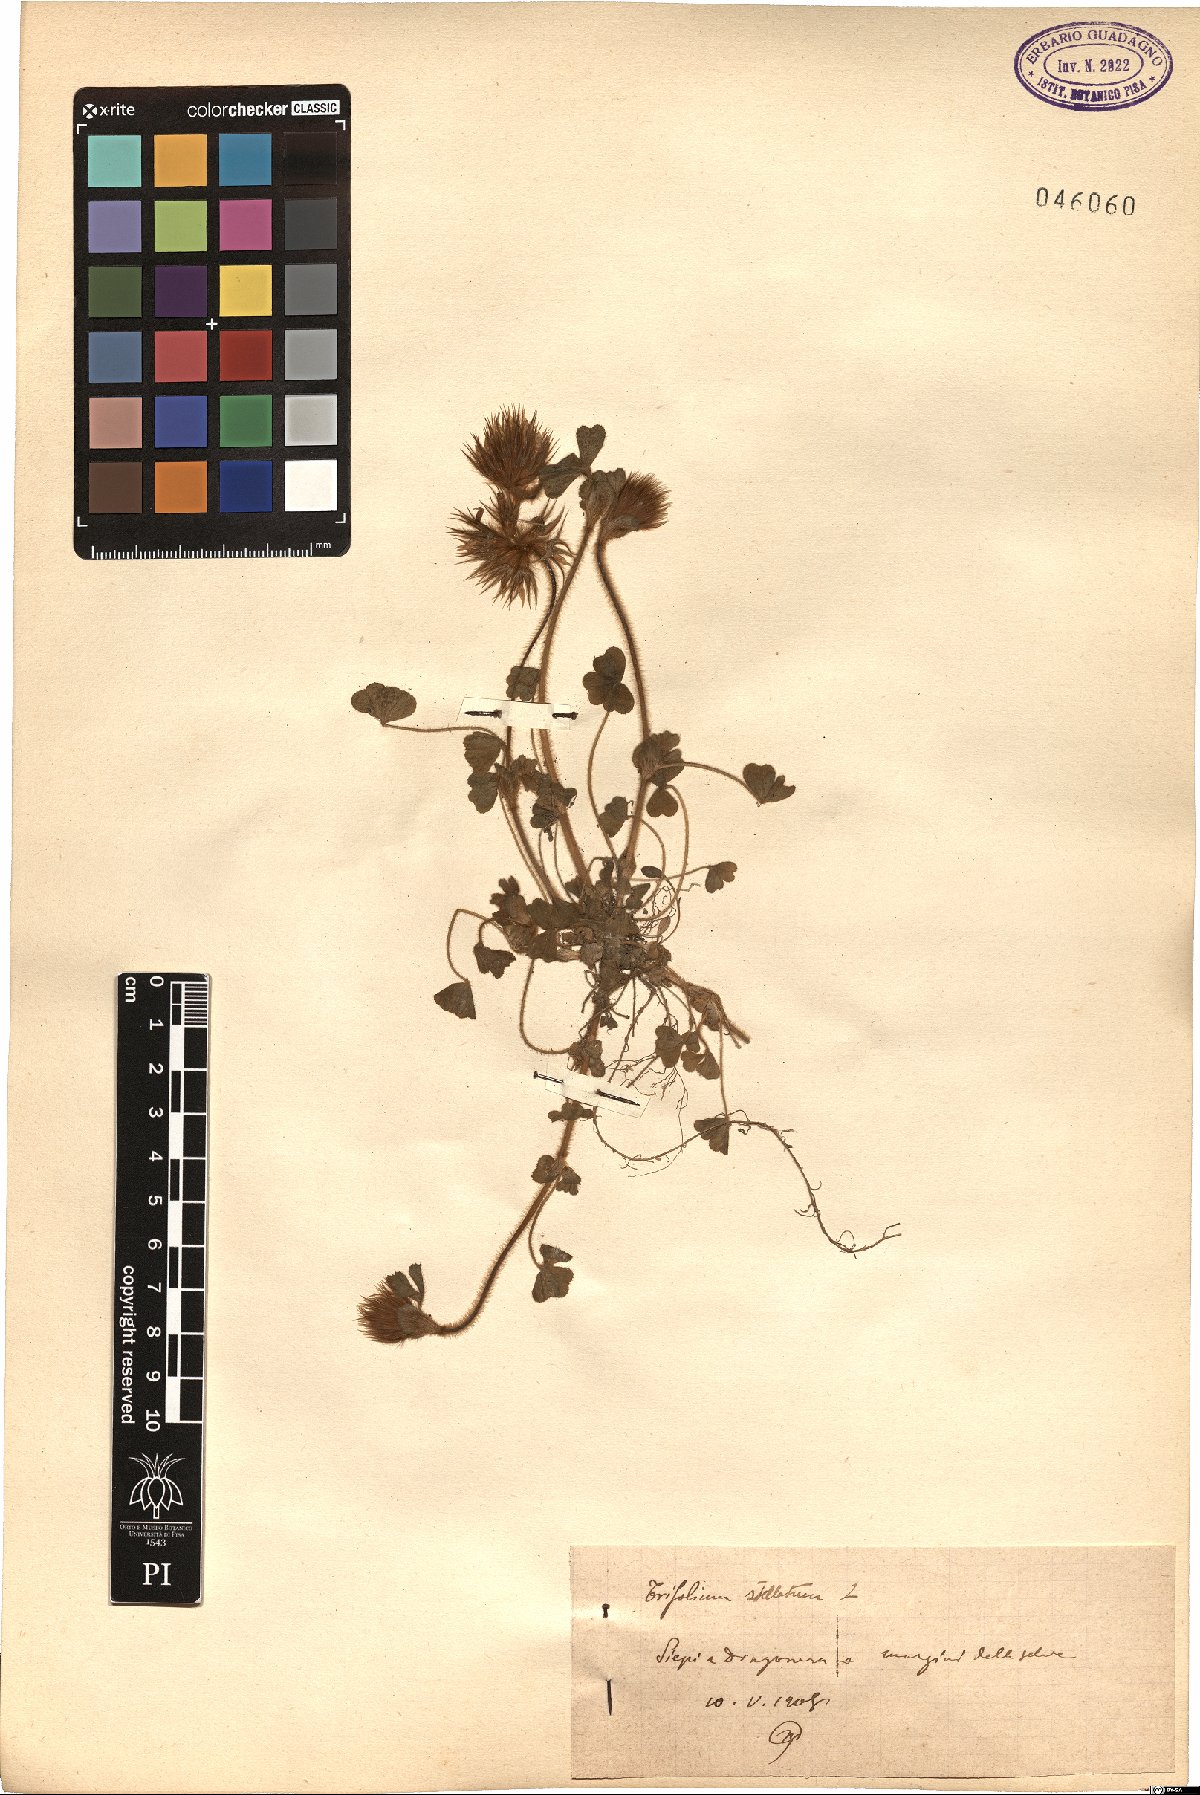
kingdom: Plantae
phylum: Tracheophyta
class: Magnoliopsida
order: Fabales
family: Fabaceae
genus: Trifolium
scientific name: Trifolium stellatum
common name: Starry clover
